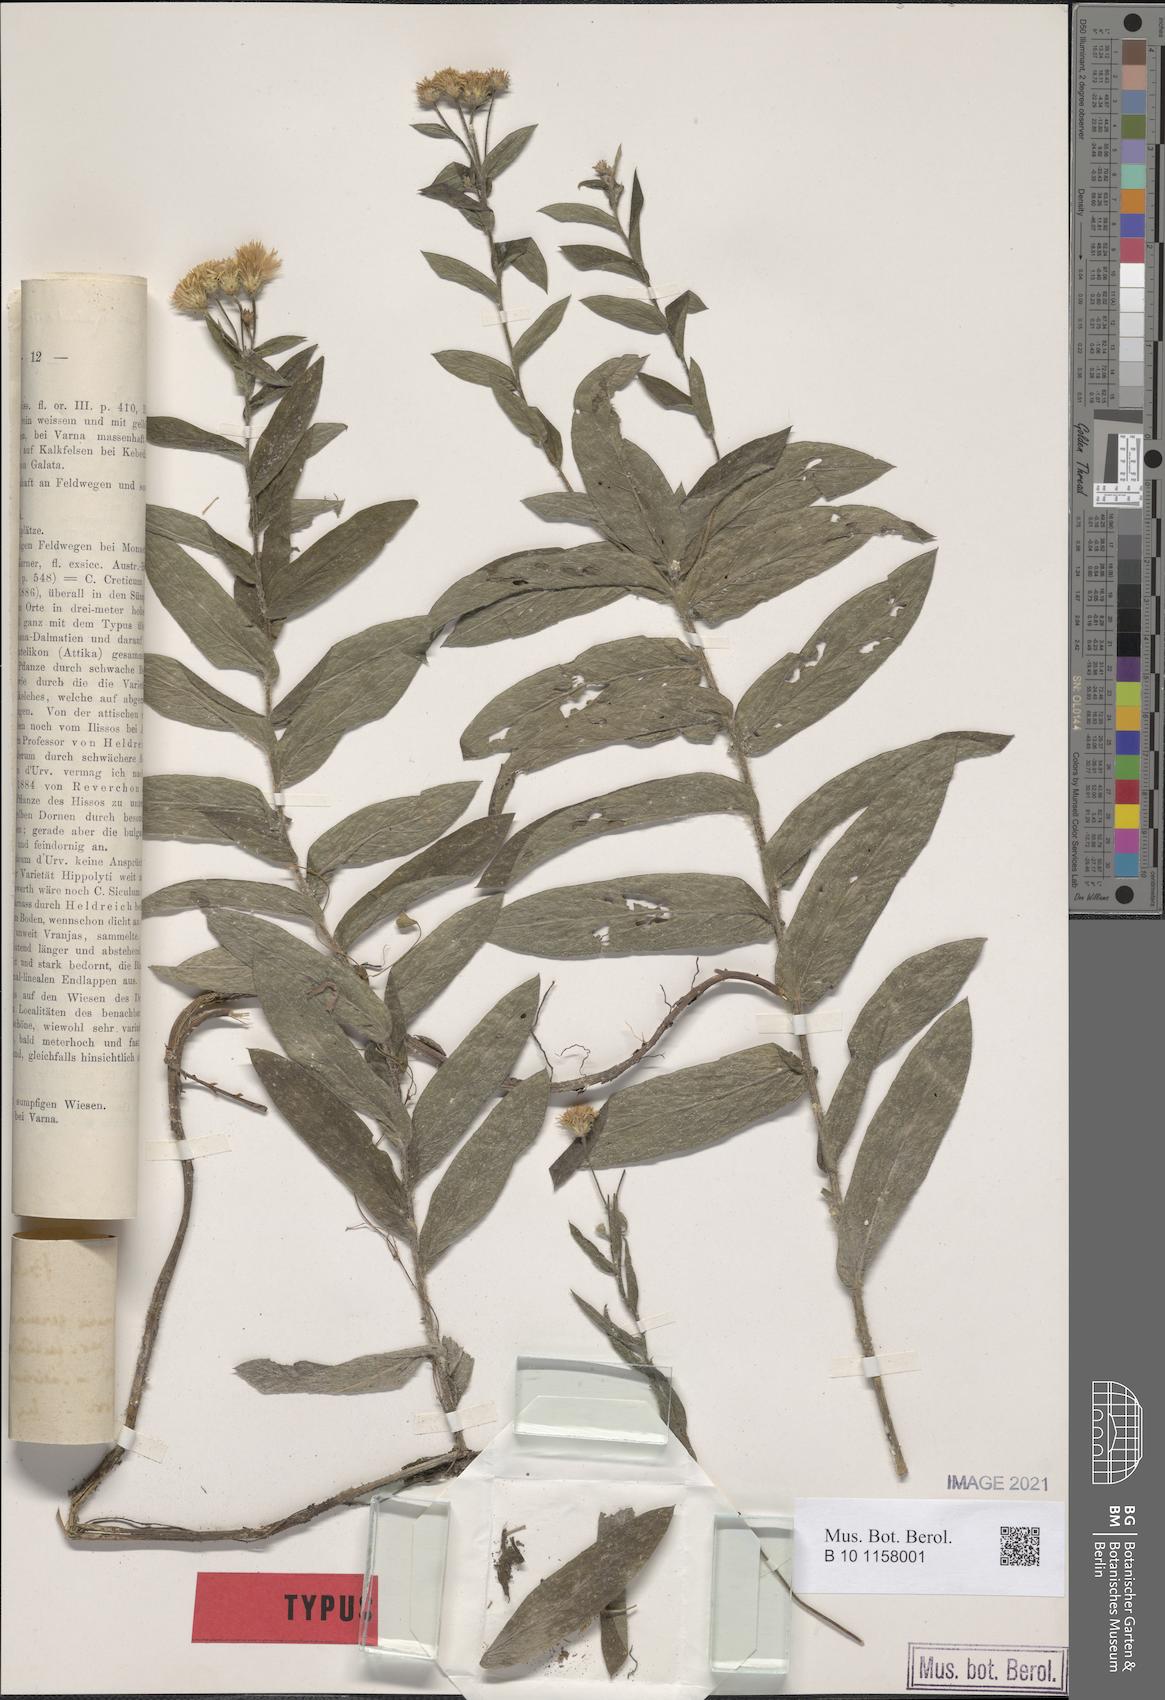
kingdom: Plantae
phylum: Tracheophyta
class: Magnoliopsida
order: Asterales
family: Asteraceae
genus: Pentanema
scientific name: Pentanema
